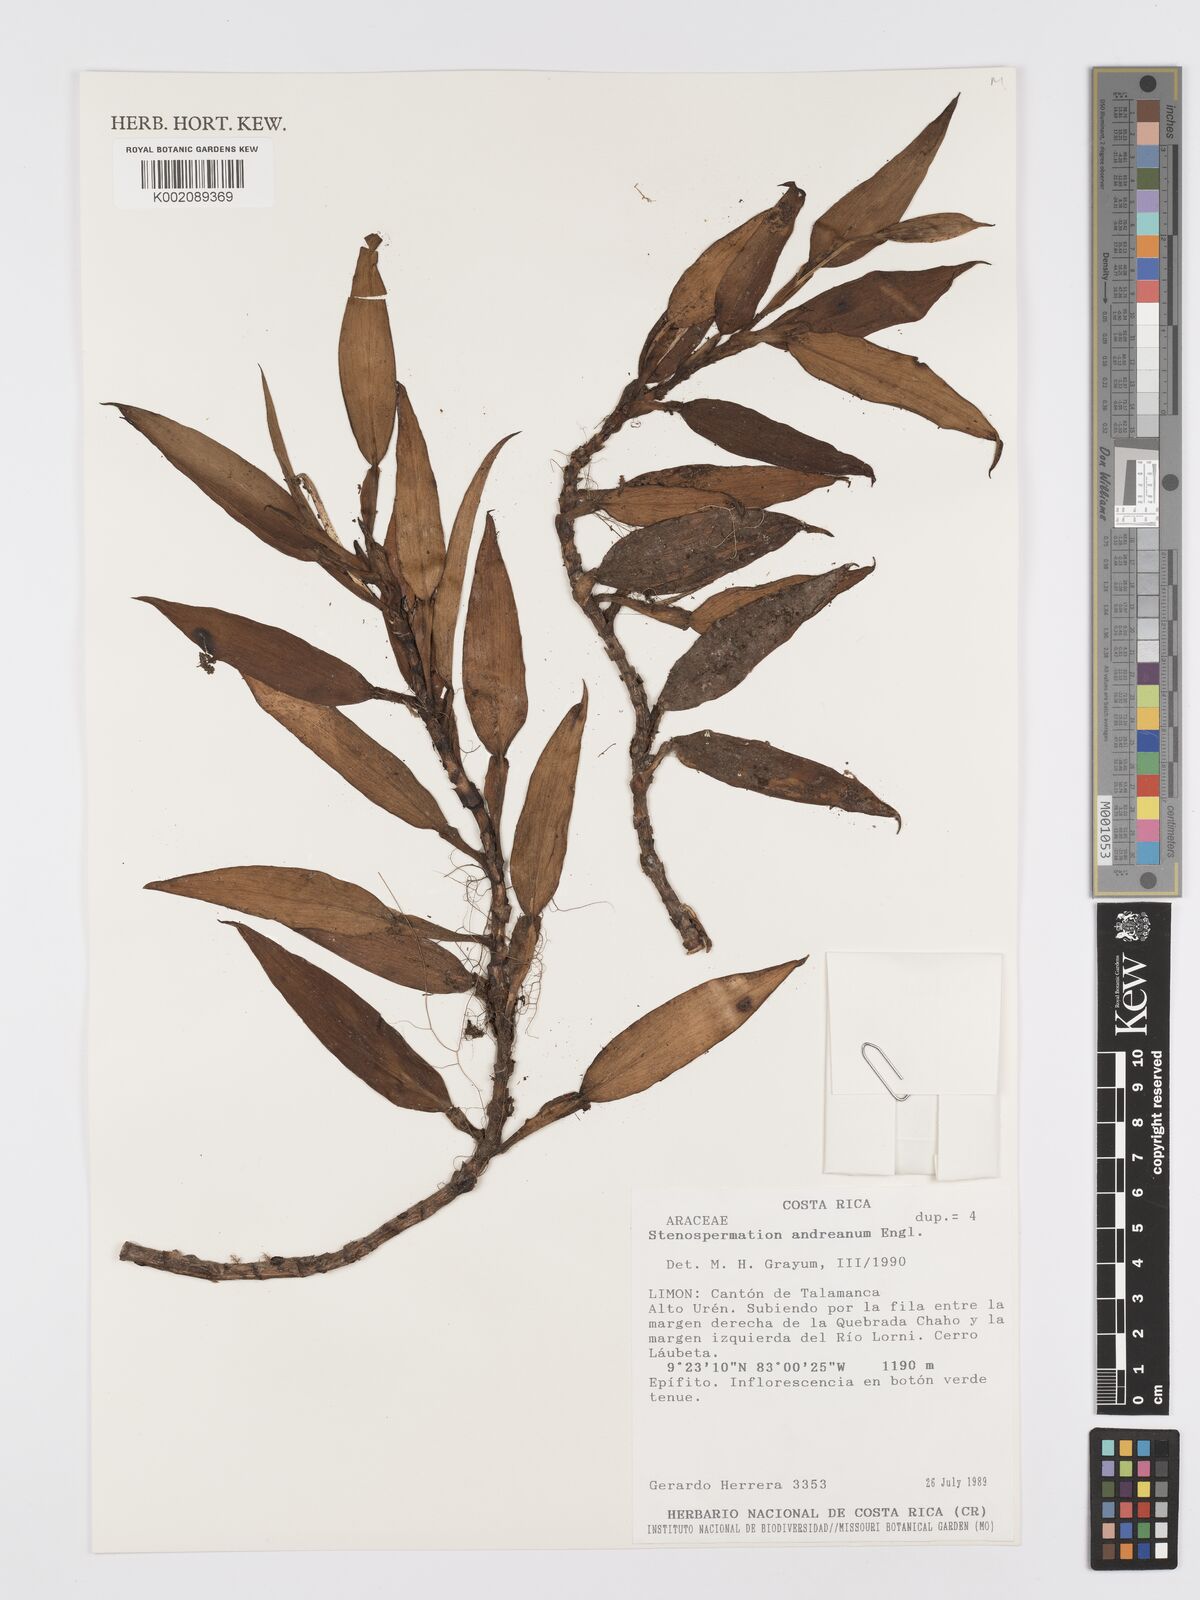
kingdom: Plantae
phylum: Tracheophyta
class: Liliopsida
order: Alismatales
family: Araceae
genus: Stenospermation
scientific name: Stenospermation andreanum
